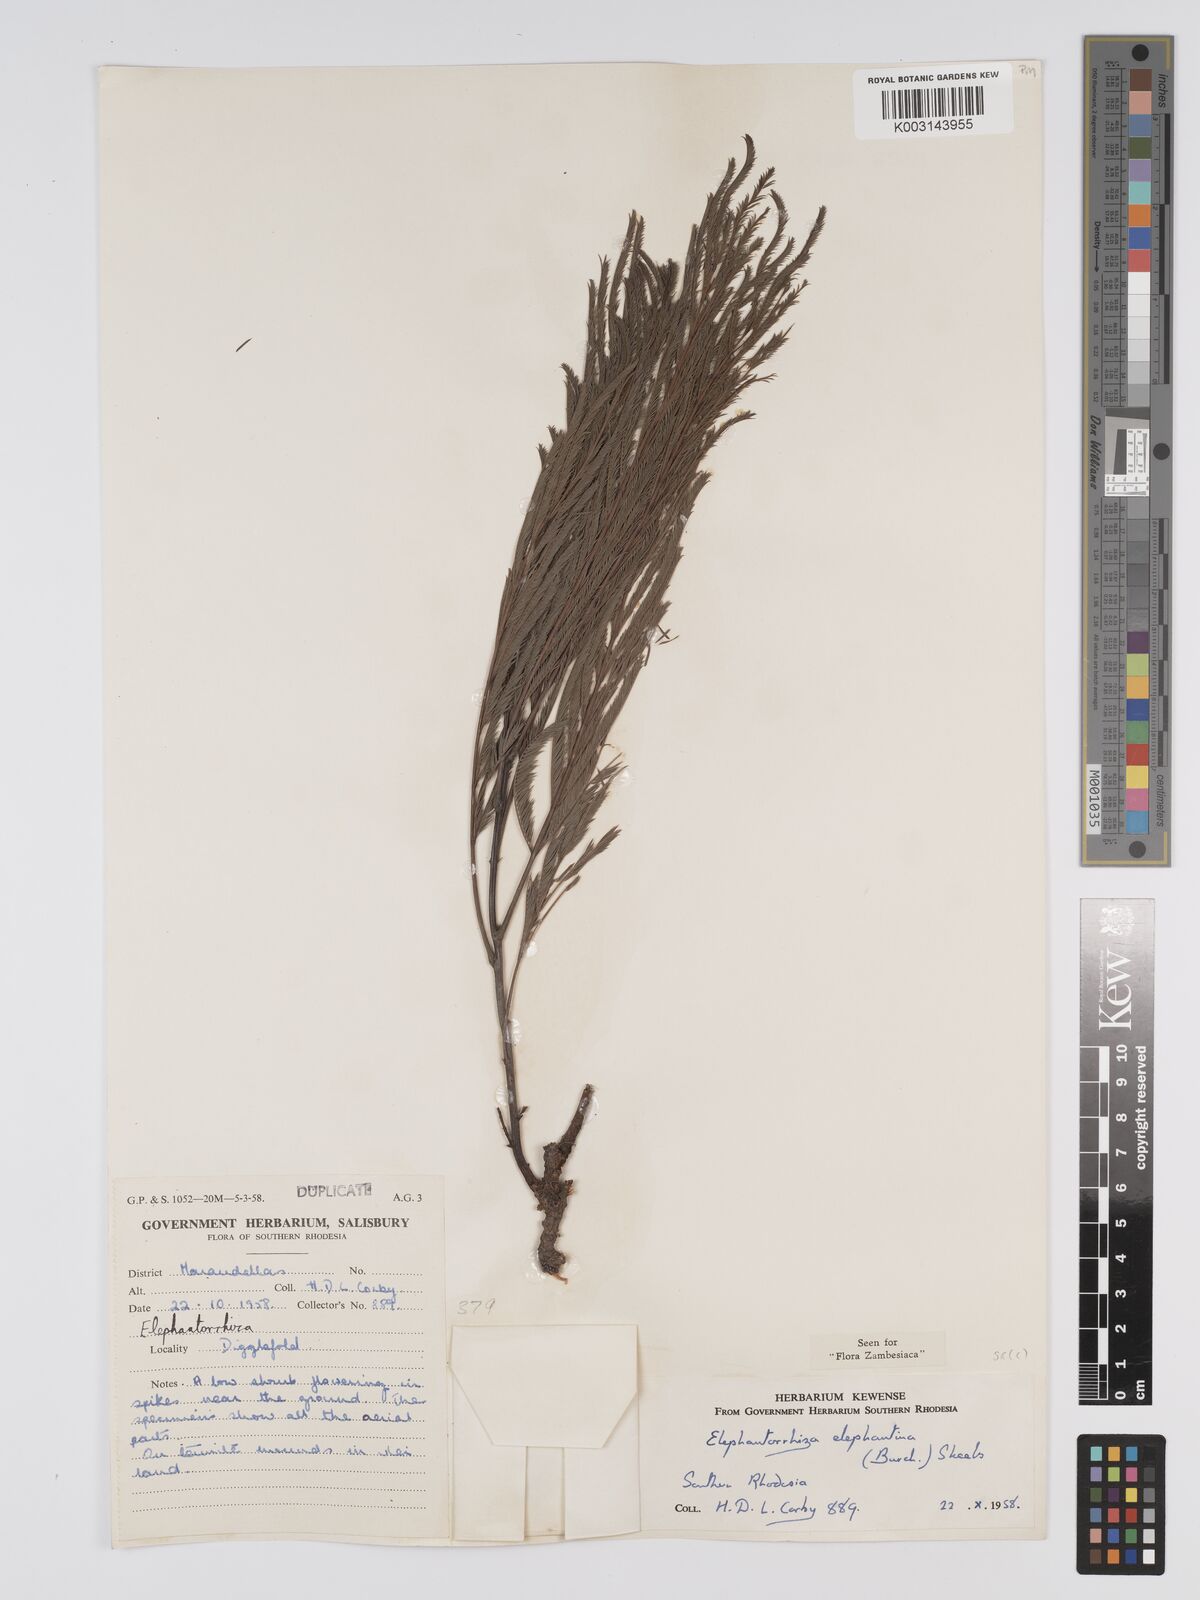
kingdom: Plantae
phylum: Tracheophyta
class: Magnoliopsida
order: Fabales
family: Fabaceae
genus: Elephantorrhiza
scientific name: Elephantorrhiza elephantina
